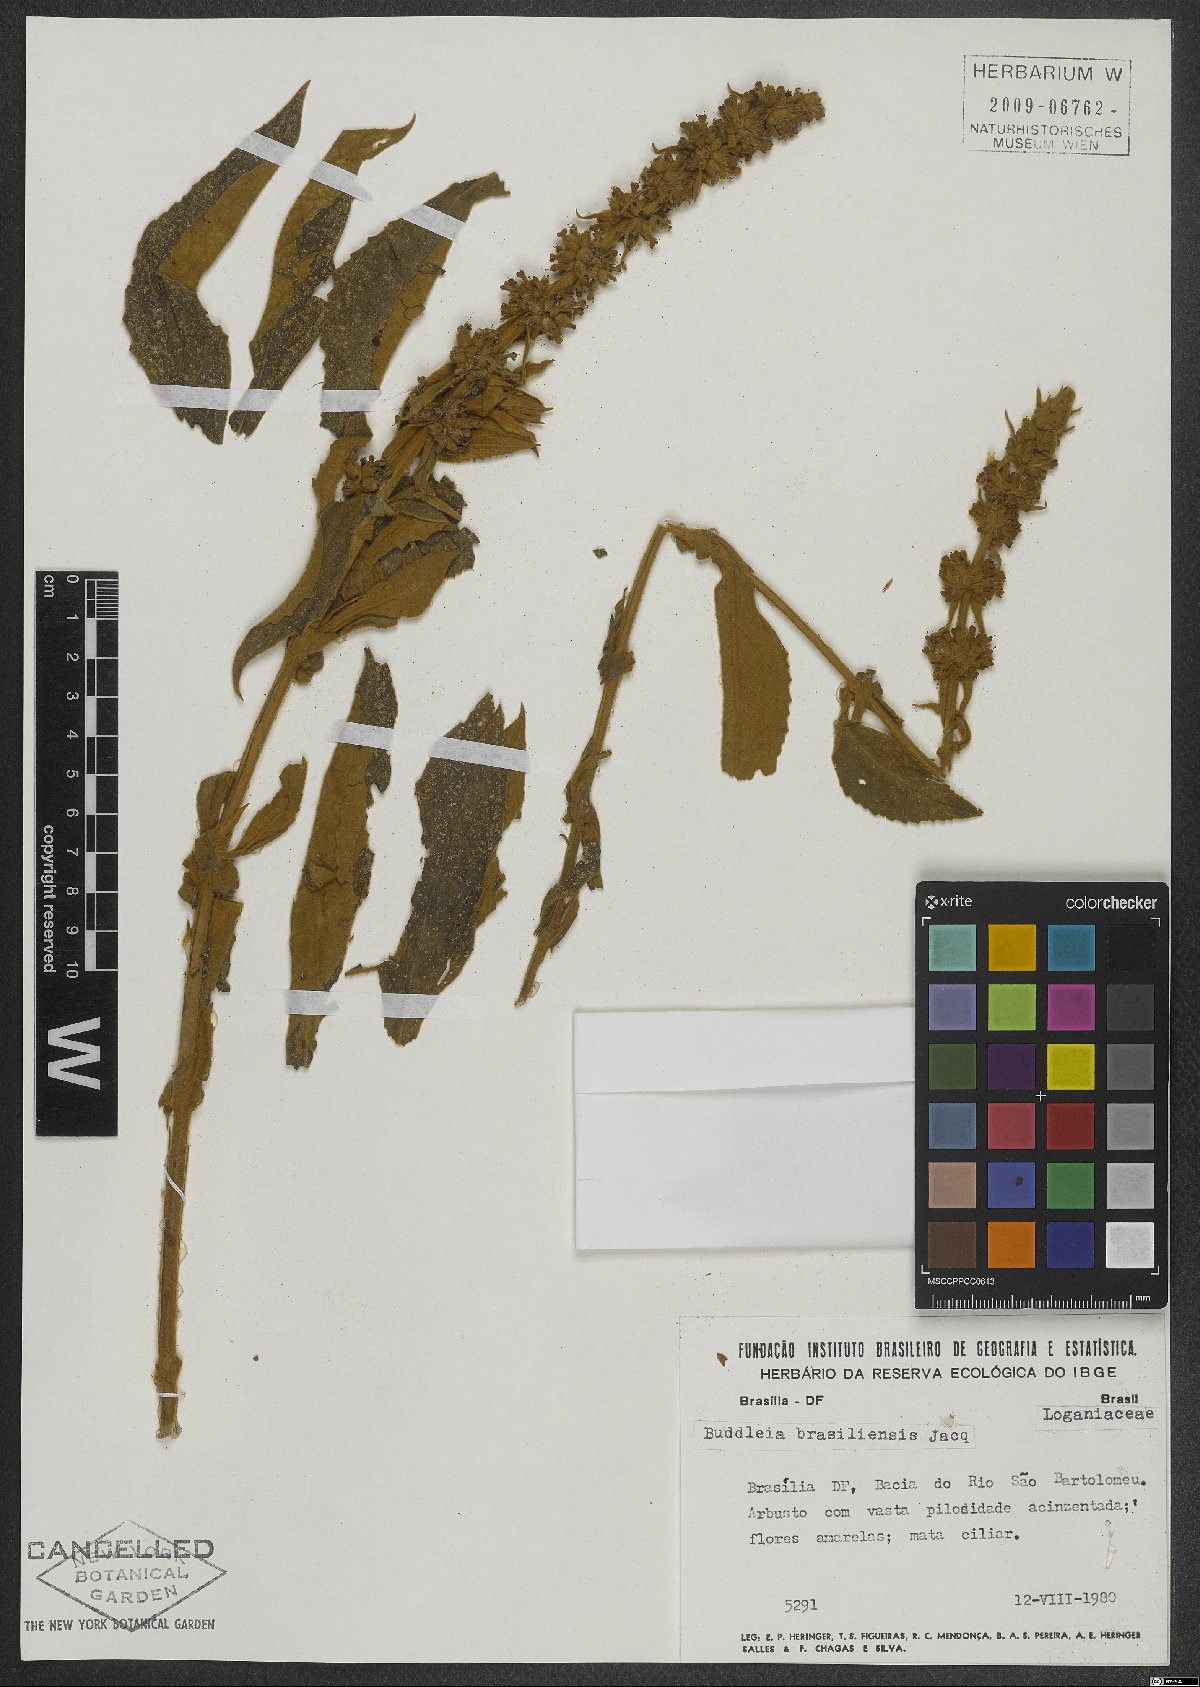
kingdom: Plantae
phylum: Tracheophyta
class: Magnoliopsida
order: Lamiales
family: Scrophulariaceae
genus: Buddleja
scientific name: Buddleja stachyoides
